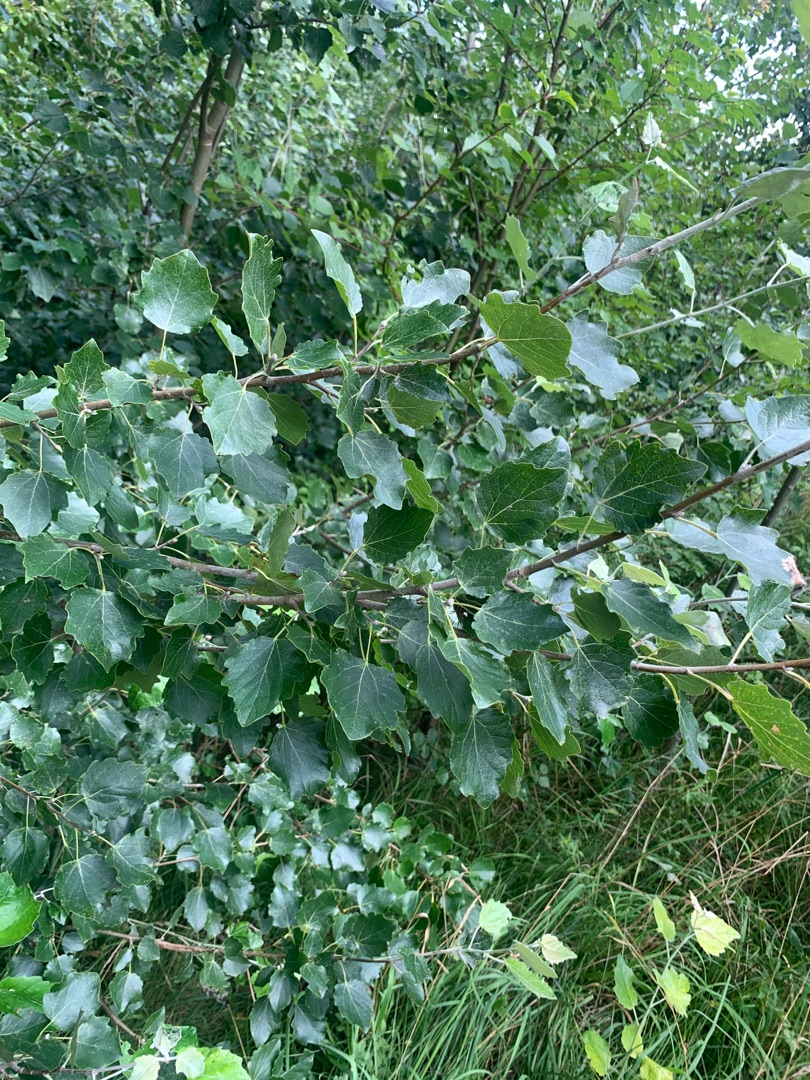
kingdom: Plantae
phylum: Tracheophyta
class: Magnoliopsida
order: Malpighiales
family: Salicaceae
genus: Populus
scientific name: Populus canescens
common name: Grå-poppel
